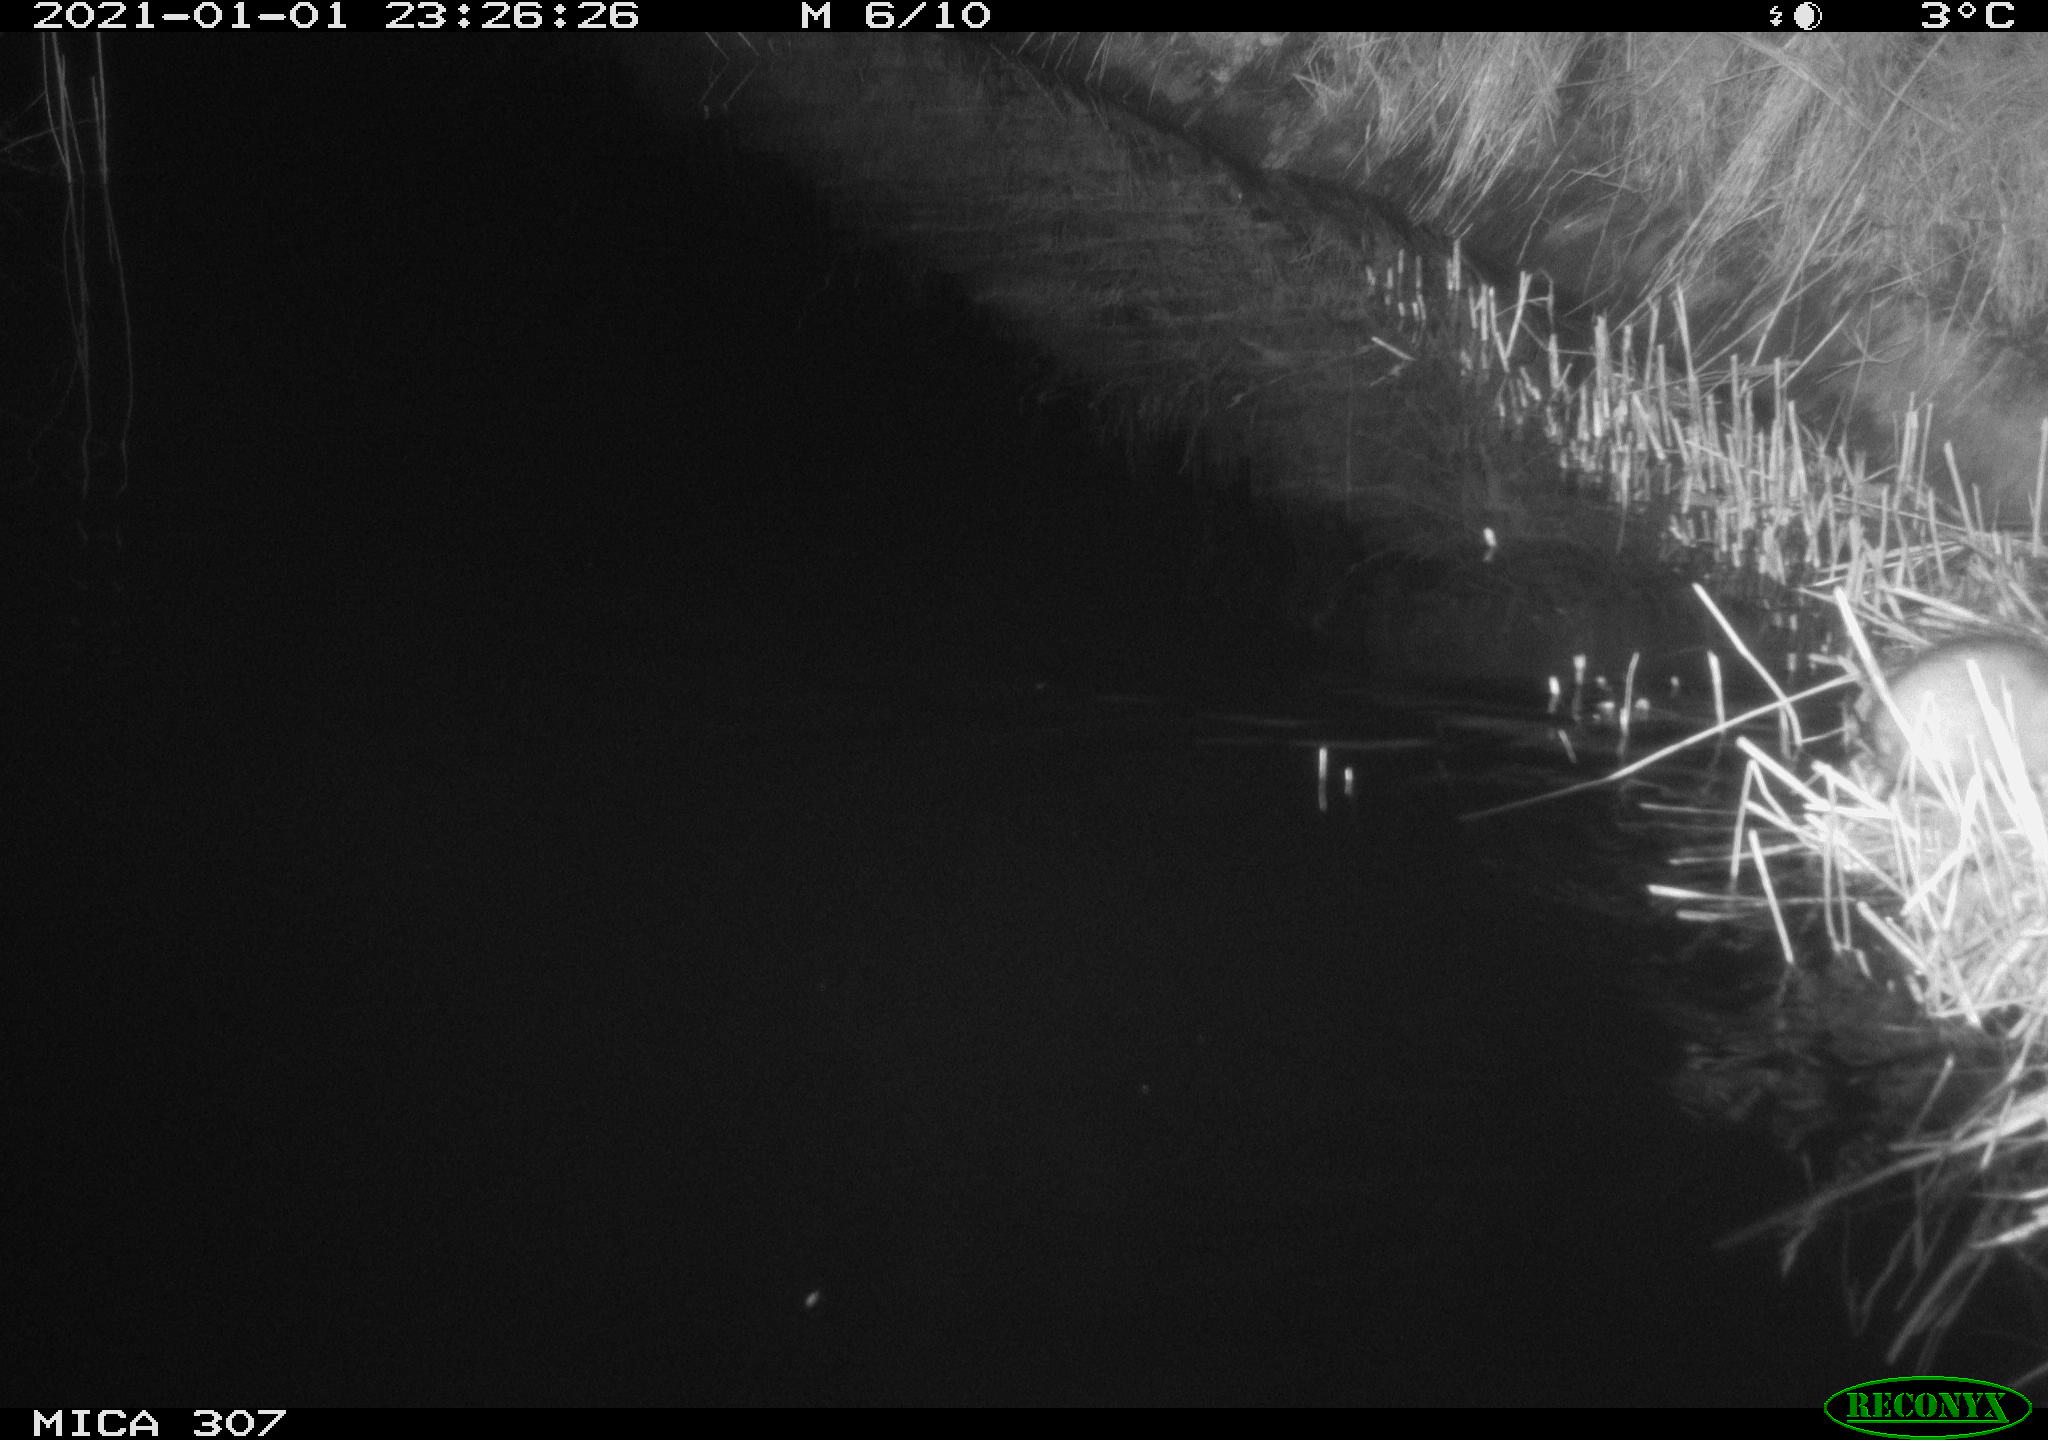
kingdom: Animalia
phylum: Chordata
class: Mammalia
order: Rodentia
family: Muridae
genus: Rattus
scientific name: Rattus norvegicus
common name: Brown rat
